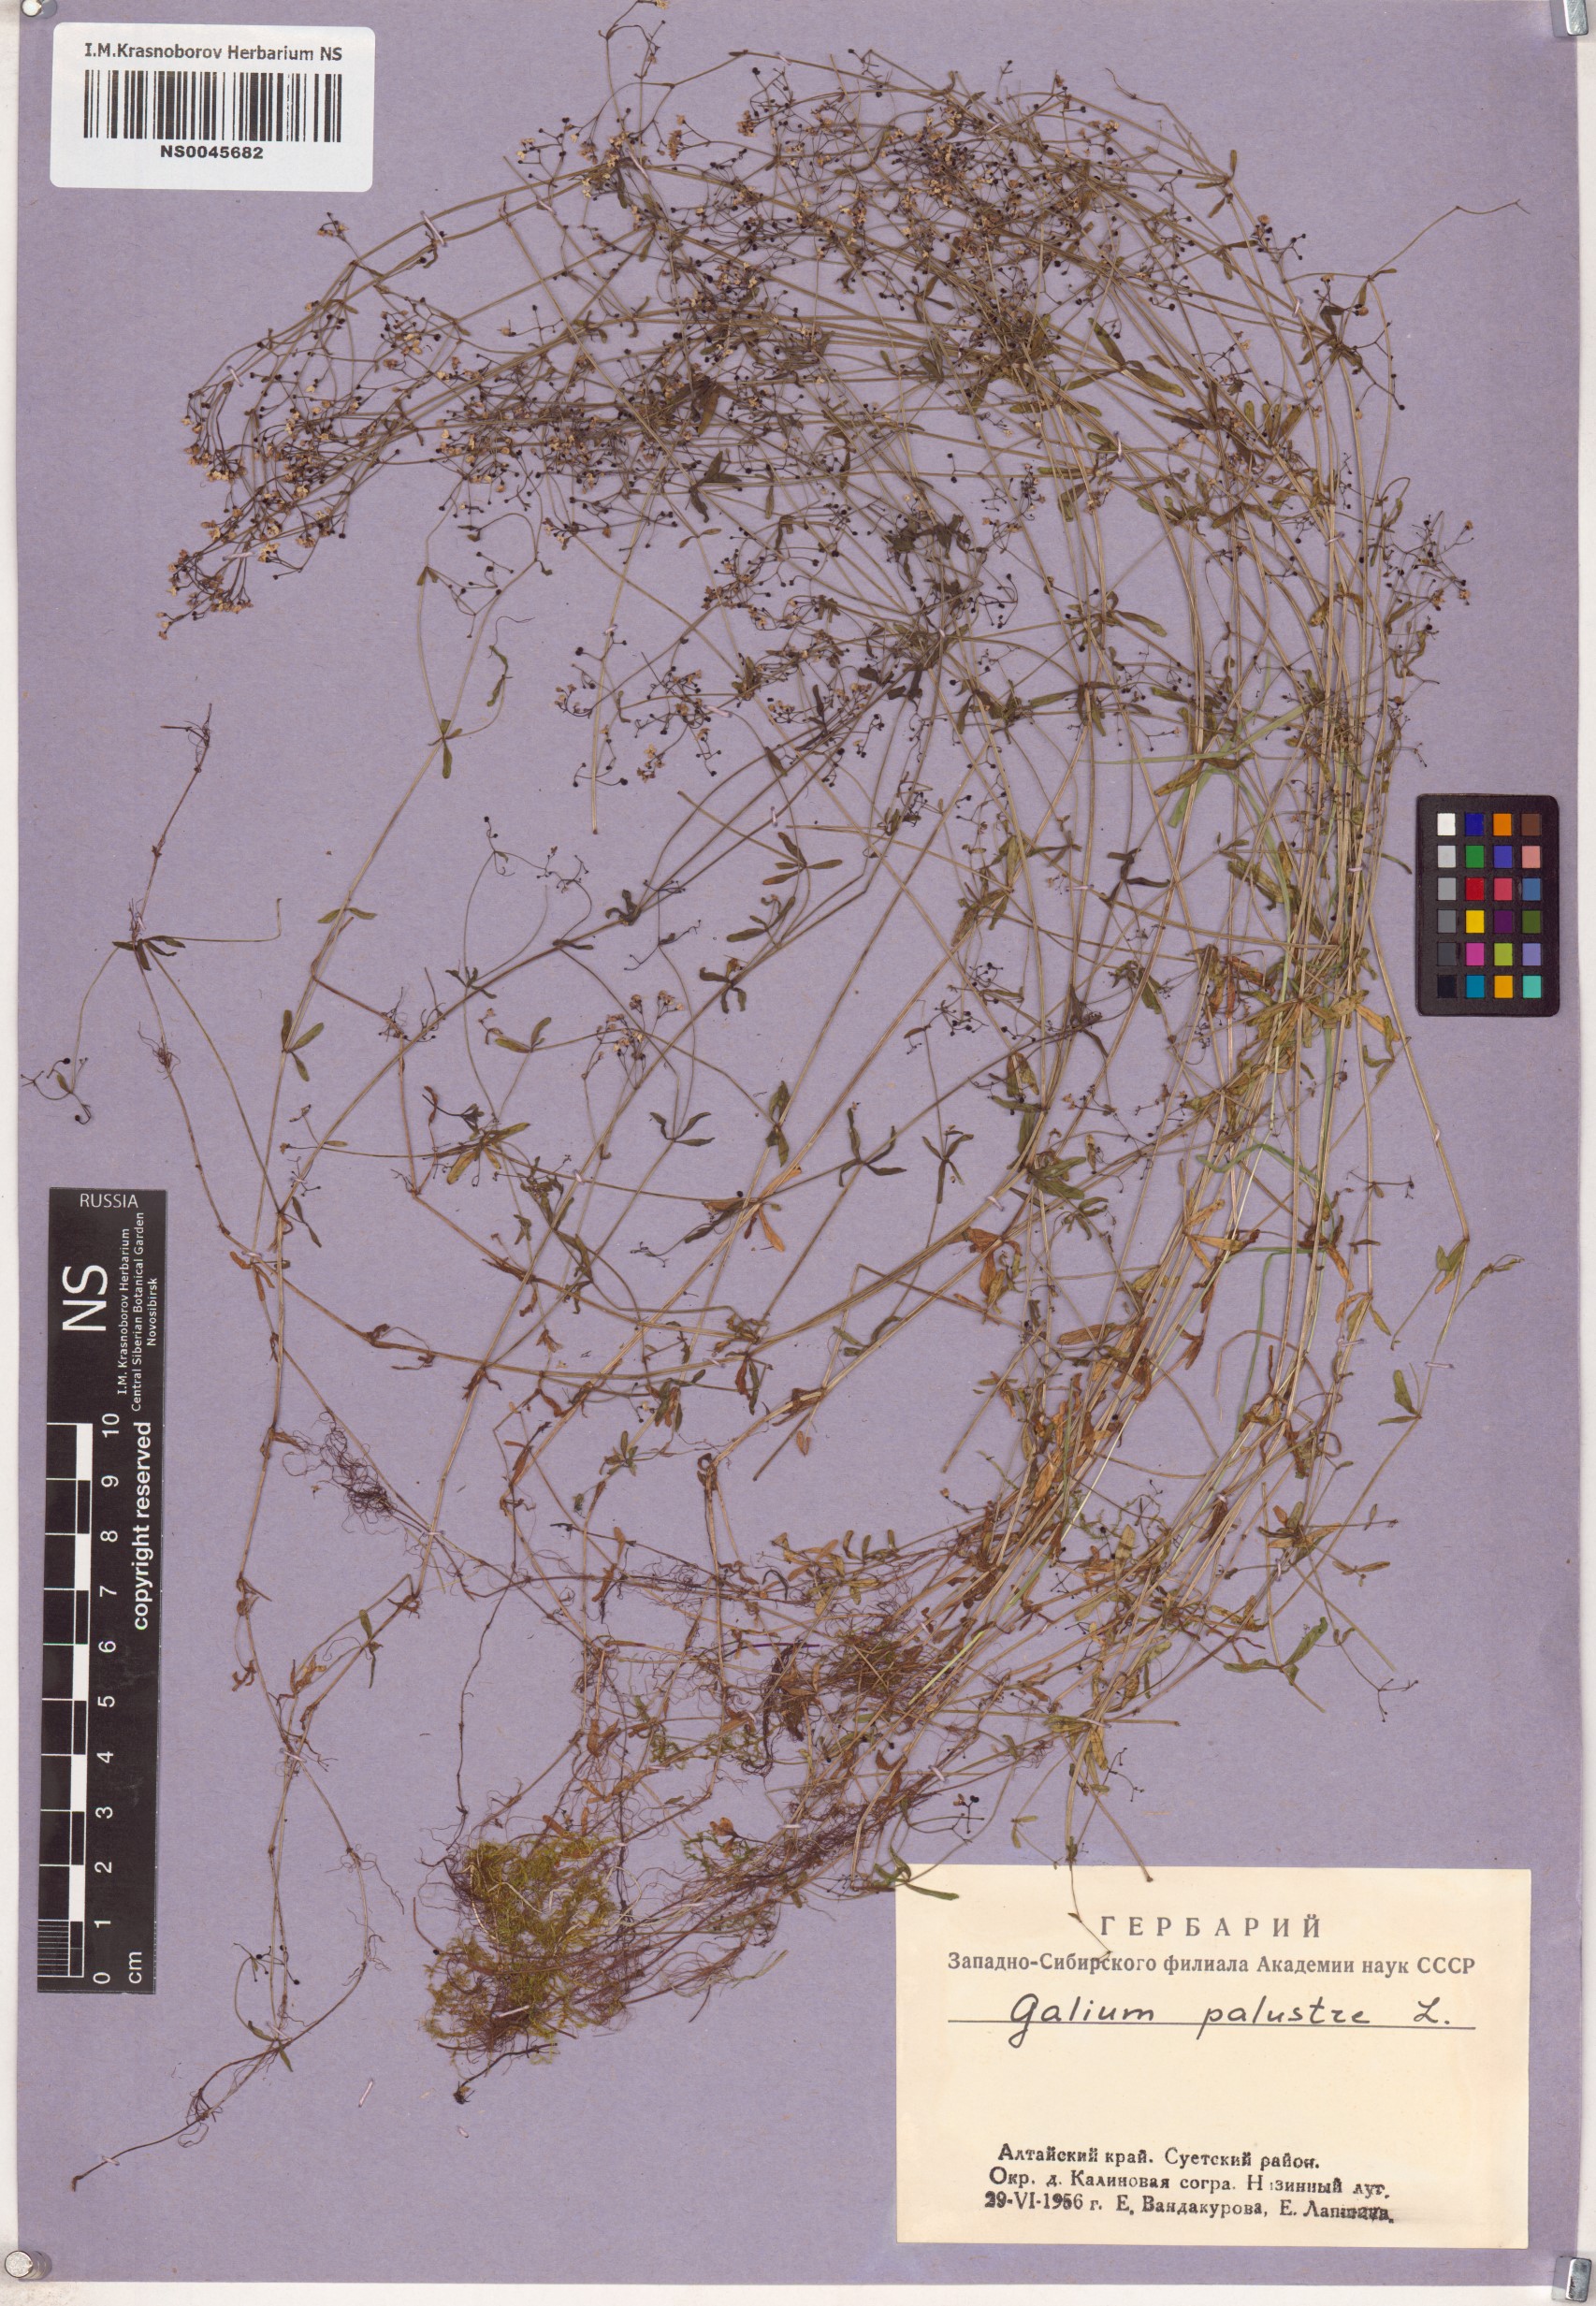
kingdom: Plantae
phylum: Tracheophyta
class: Magnoliopsida
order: Gentianales
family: Rubiaceae
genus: Galium
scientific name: Galium palustre
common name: Common marsh-bedstraw
